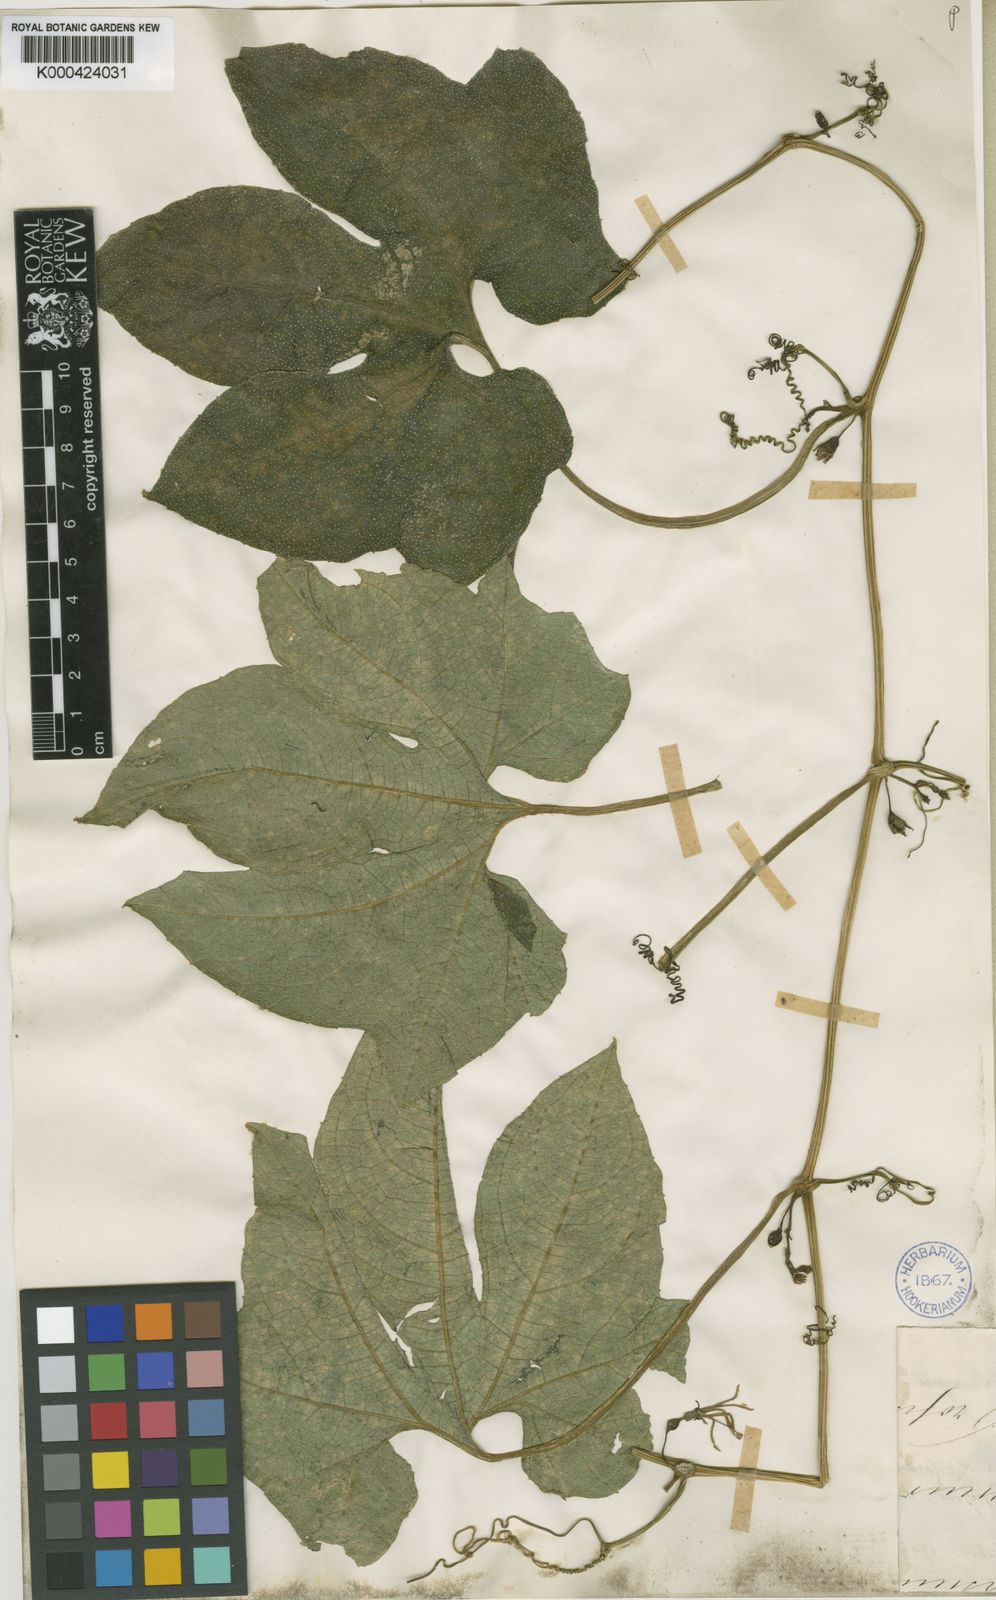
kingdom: Plantae
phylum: Tracheophyta
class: Magnoliopsida
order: Cucurbitales
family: Cucurbitaceae
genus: Cayaponia
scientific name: Cayaponia americana
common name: American melonleaf
